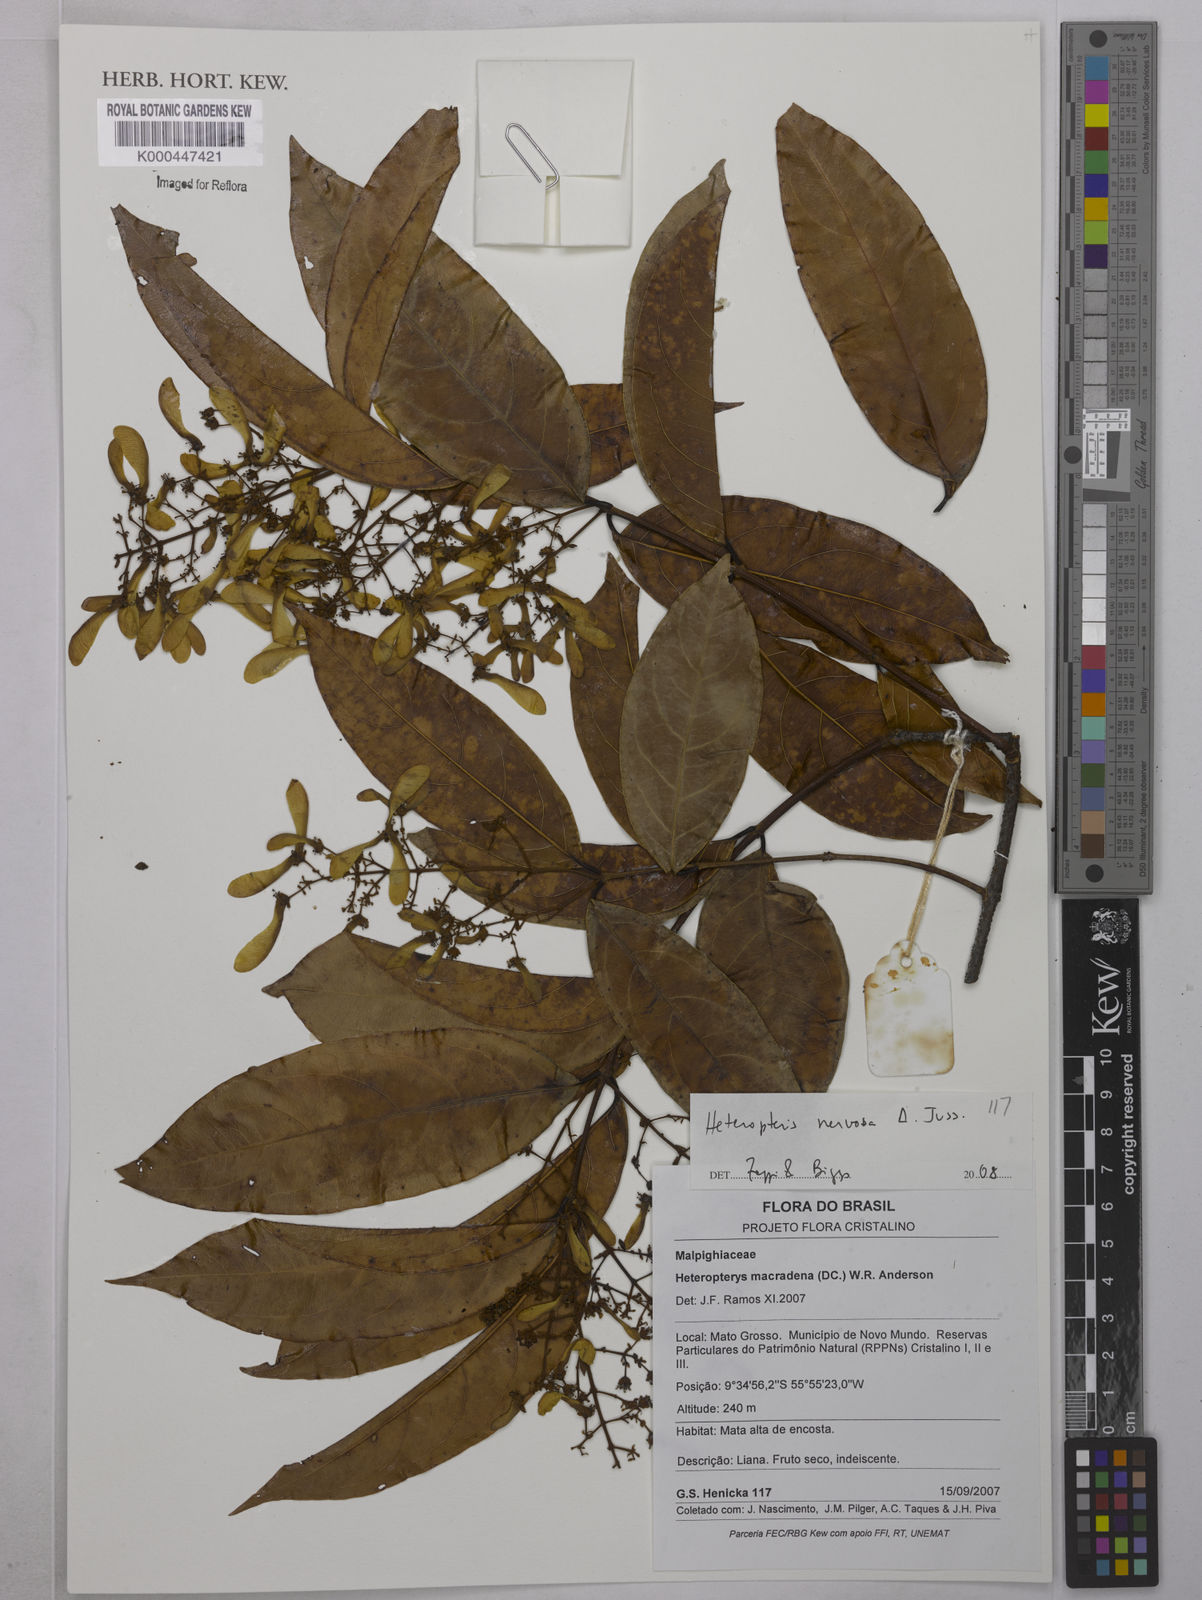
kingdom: Plantae
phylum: Tracheophyta
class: Magnoliopsida
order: Malpighiales
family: Malpighiaceae
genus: Heteropterys
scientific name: Heteropterys nervosa
